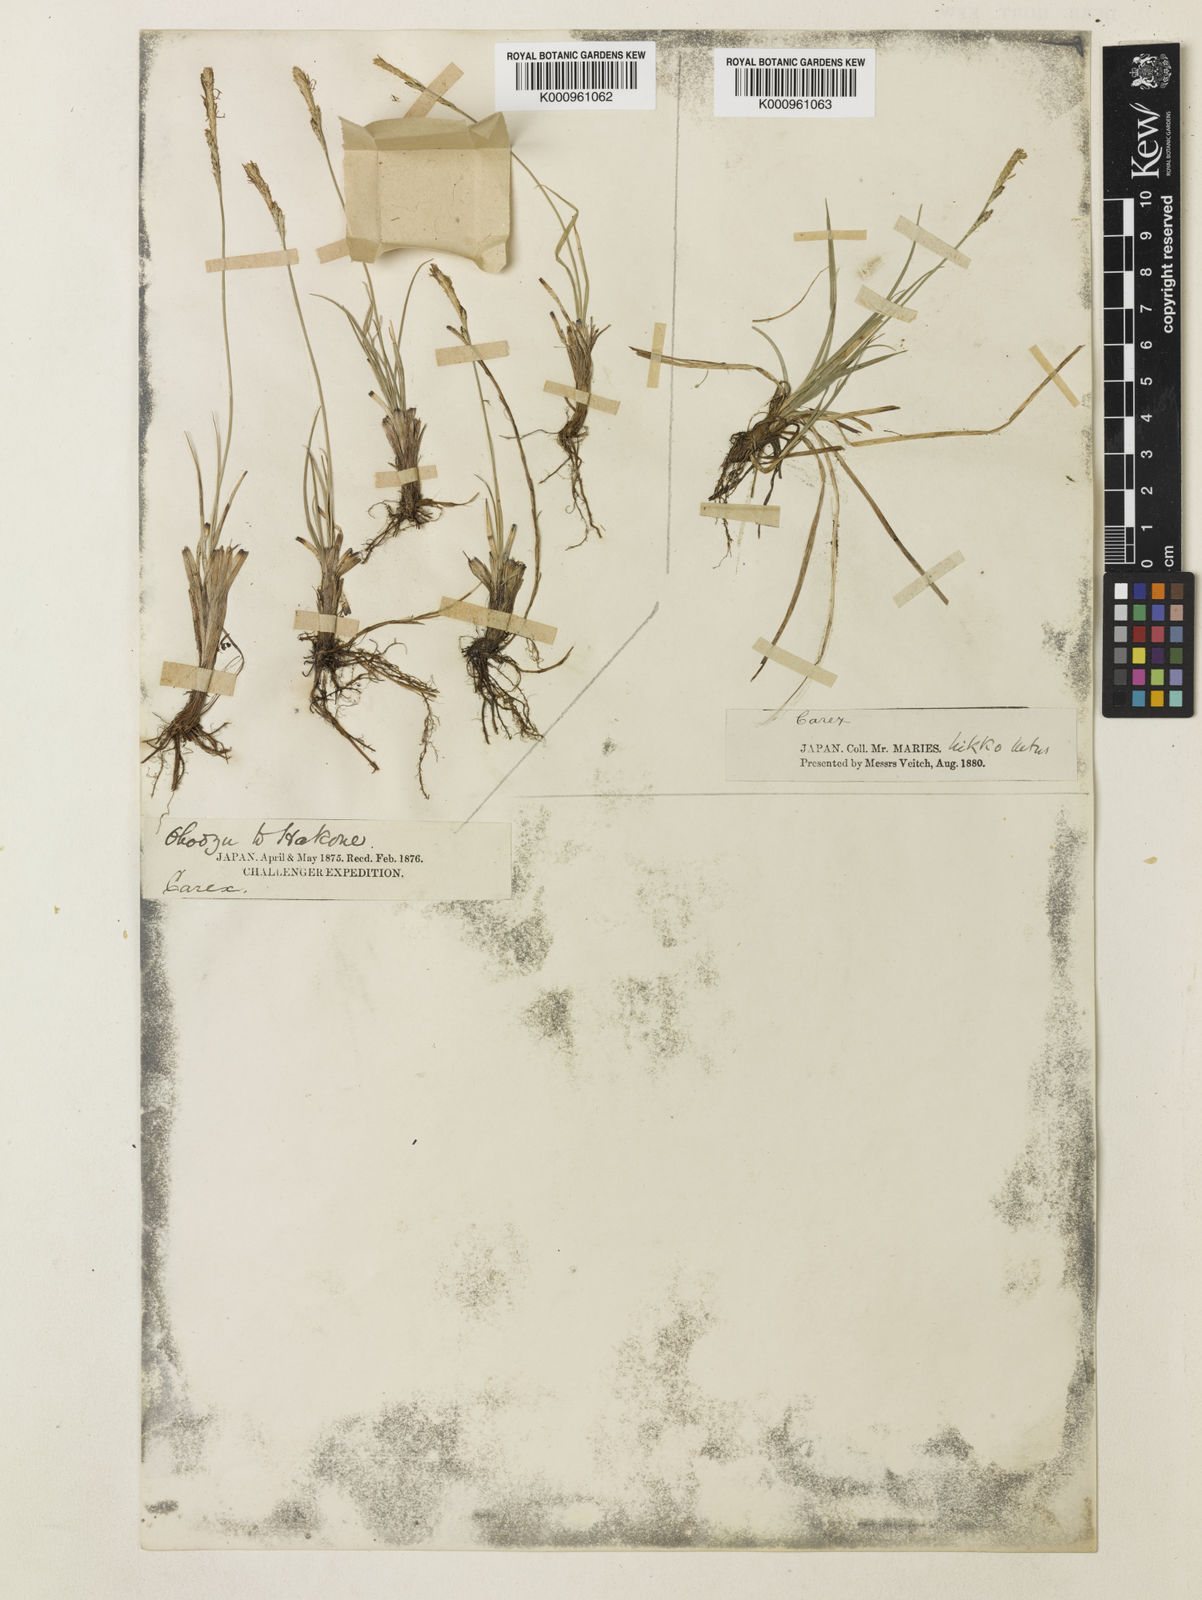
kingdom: Plantae
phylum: Tracheophyta
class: Liliopsida
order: Poales
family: Cyperaceae
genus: Carex
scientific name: Carex pisiformis
